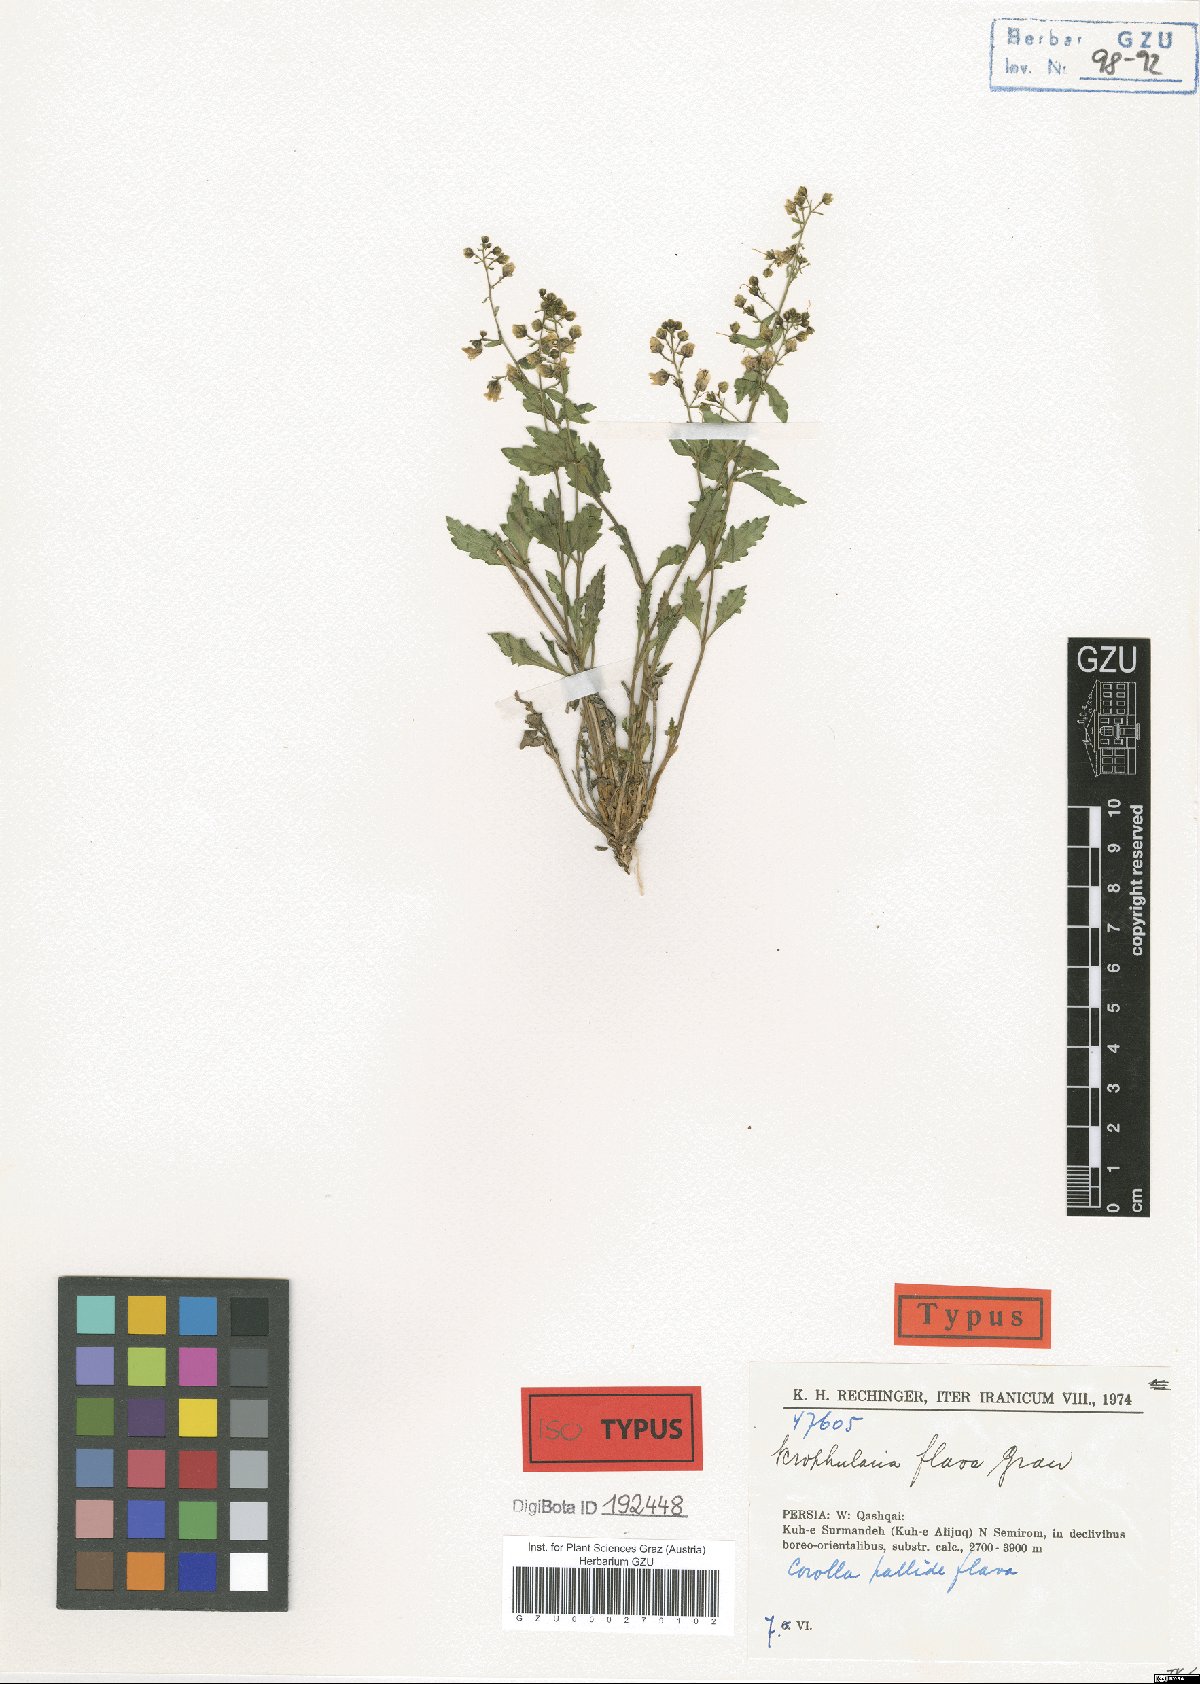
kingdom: Plantae
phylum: Tracheophyta
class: Magnoliopsida
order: Lamiales
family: Scrophulariaceae
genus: Scrophularia
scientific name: Scrophularia flava
